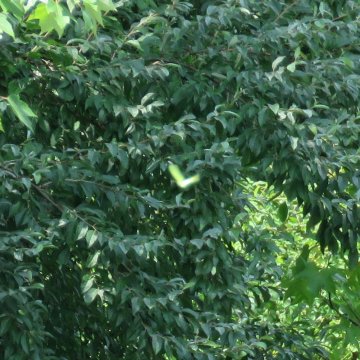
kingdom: Animalia
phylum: Arthropoda
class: Insecta
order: Lepidoptera
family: Pieridae
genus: Phoebis
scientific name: Phoebis sennae
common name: Cloudless Sulphur
